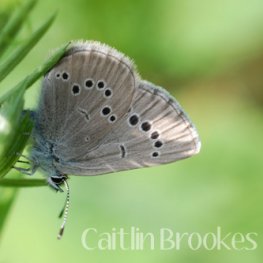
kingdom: Animalia
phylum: Arthropoda
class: Insecta
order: Lepidoptera
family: Lycaenidae
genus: Glaucopsyche
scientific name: Glaucopsyche lygdamus
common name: Silvery Blue
